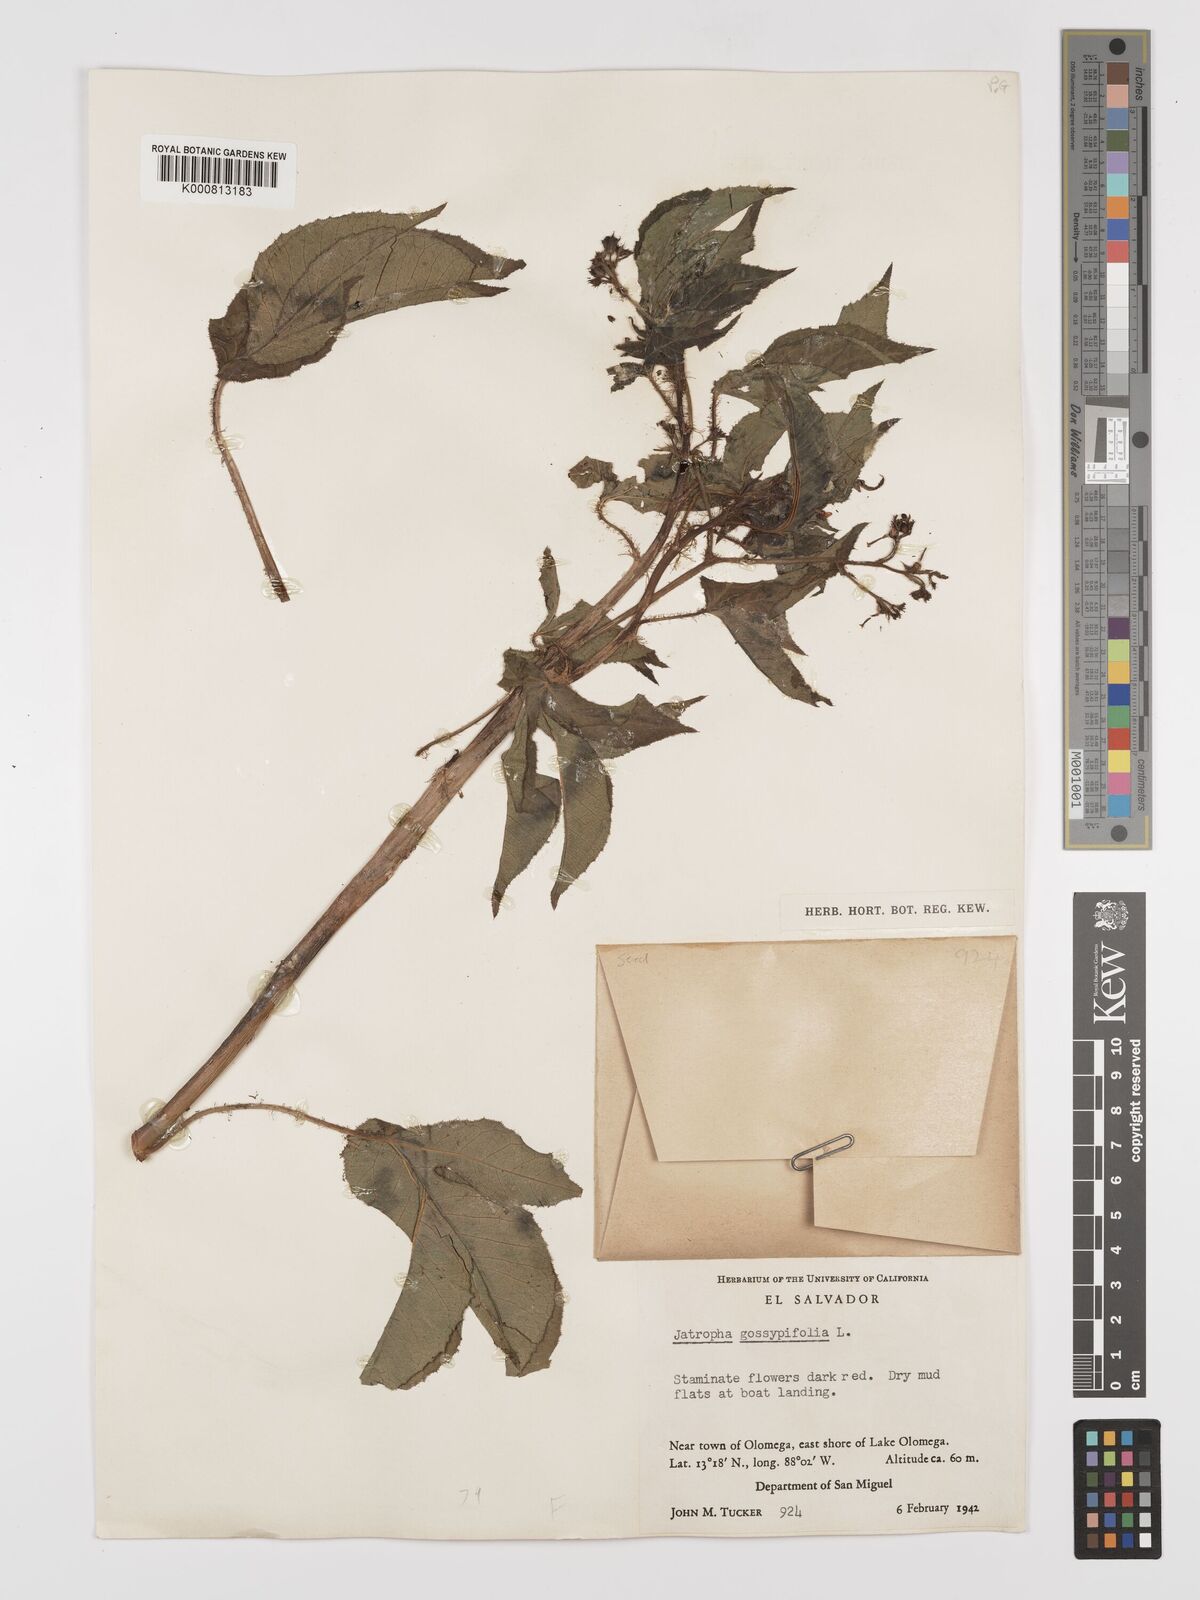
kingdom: Plantae
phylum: Tracheophyta
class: Magnoliopsida
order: Malpighiales
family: Euphorbiaceae
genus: Jatropha
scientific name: Jatropha gossypiifolia
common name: Bellyache bush
